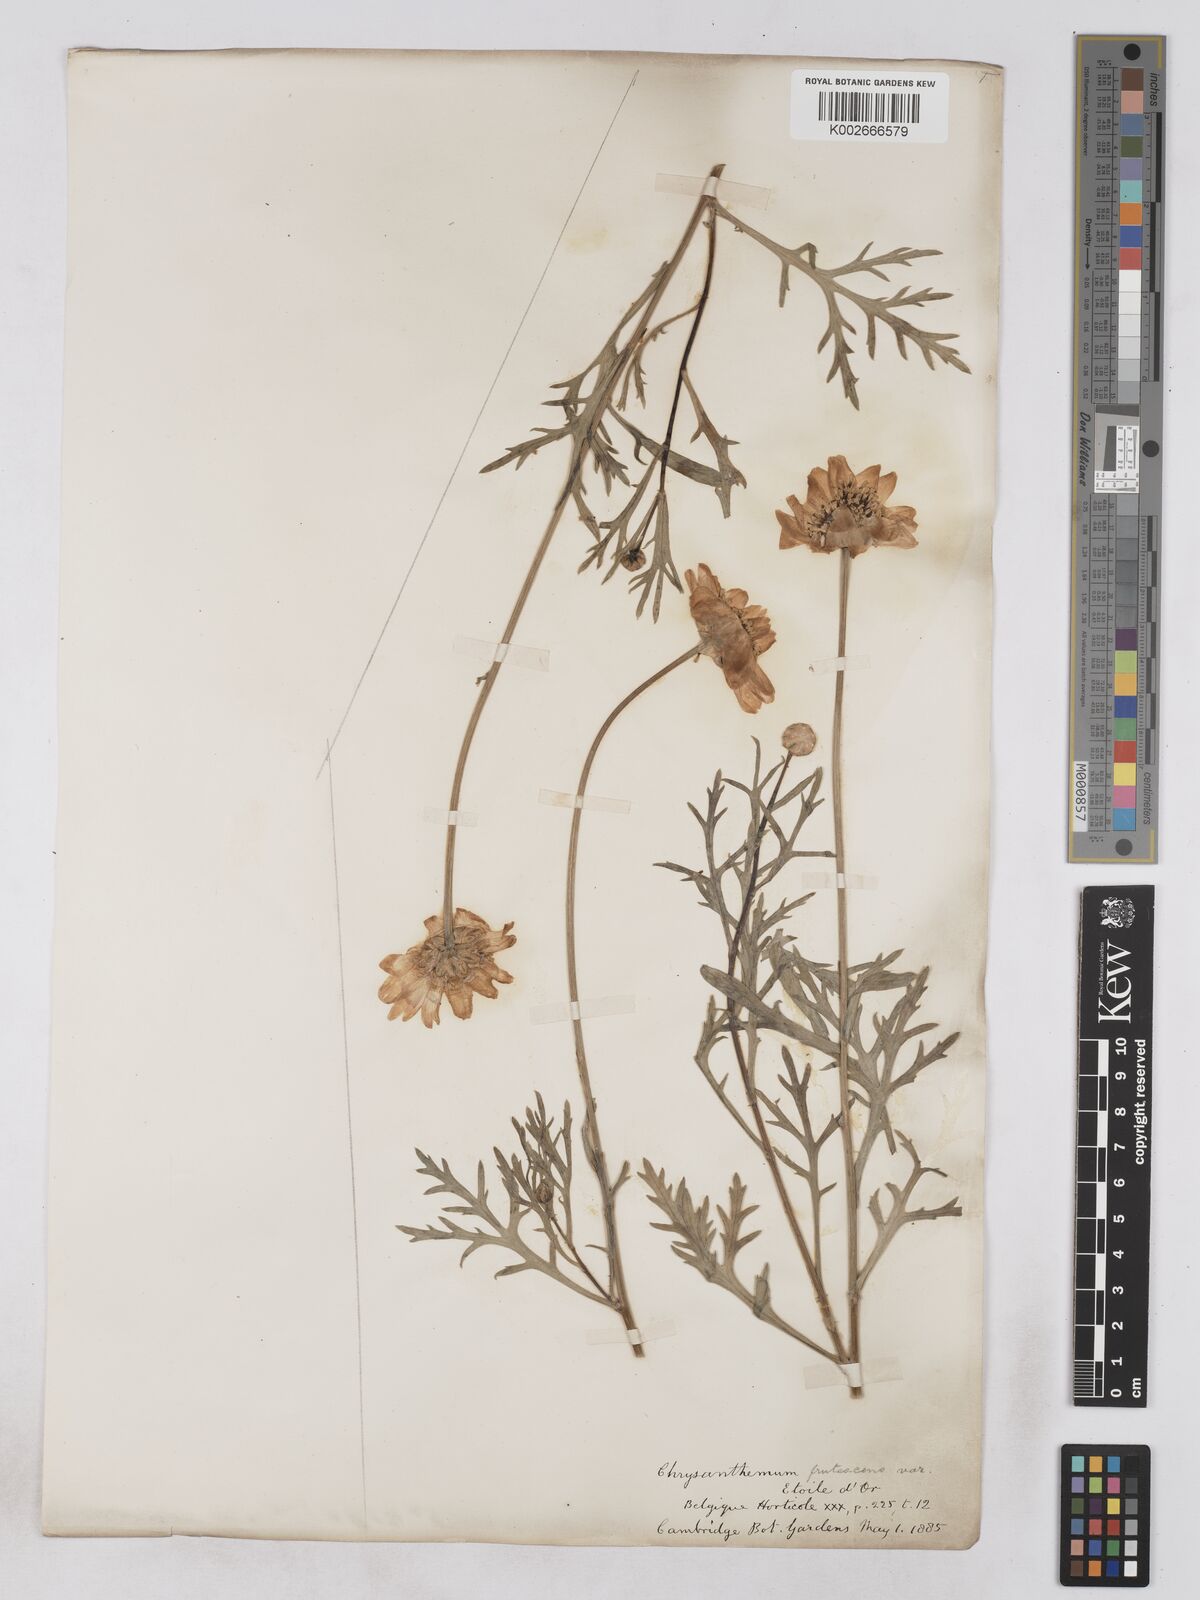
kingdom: Plantae
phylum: Tracheophyta
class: Magnoliopsida
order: Asterales
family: Asteraceae
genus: Argyranthemum
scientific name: Argyranthemum frutescens
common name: Paris daisy
